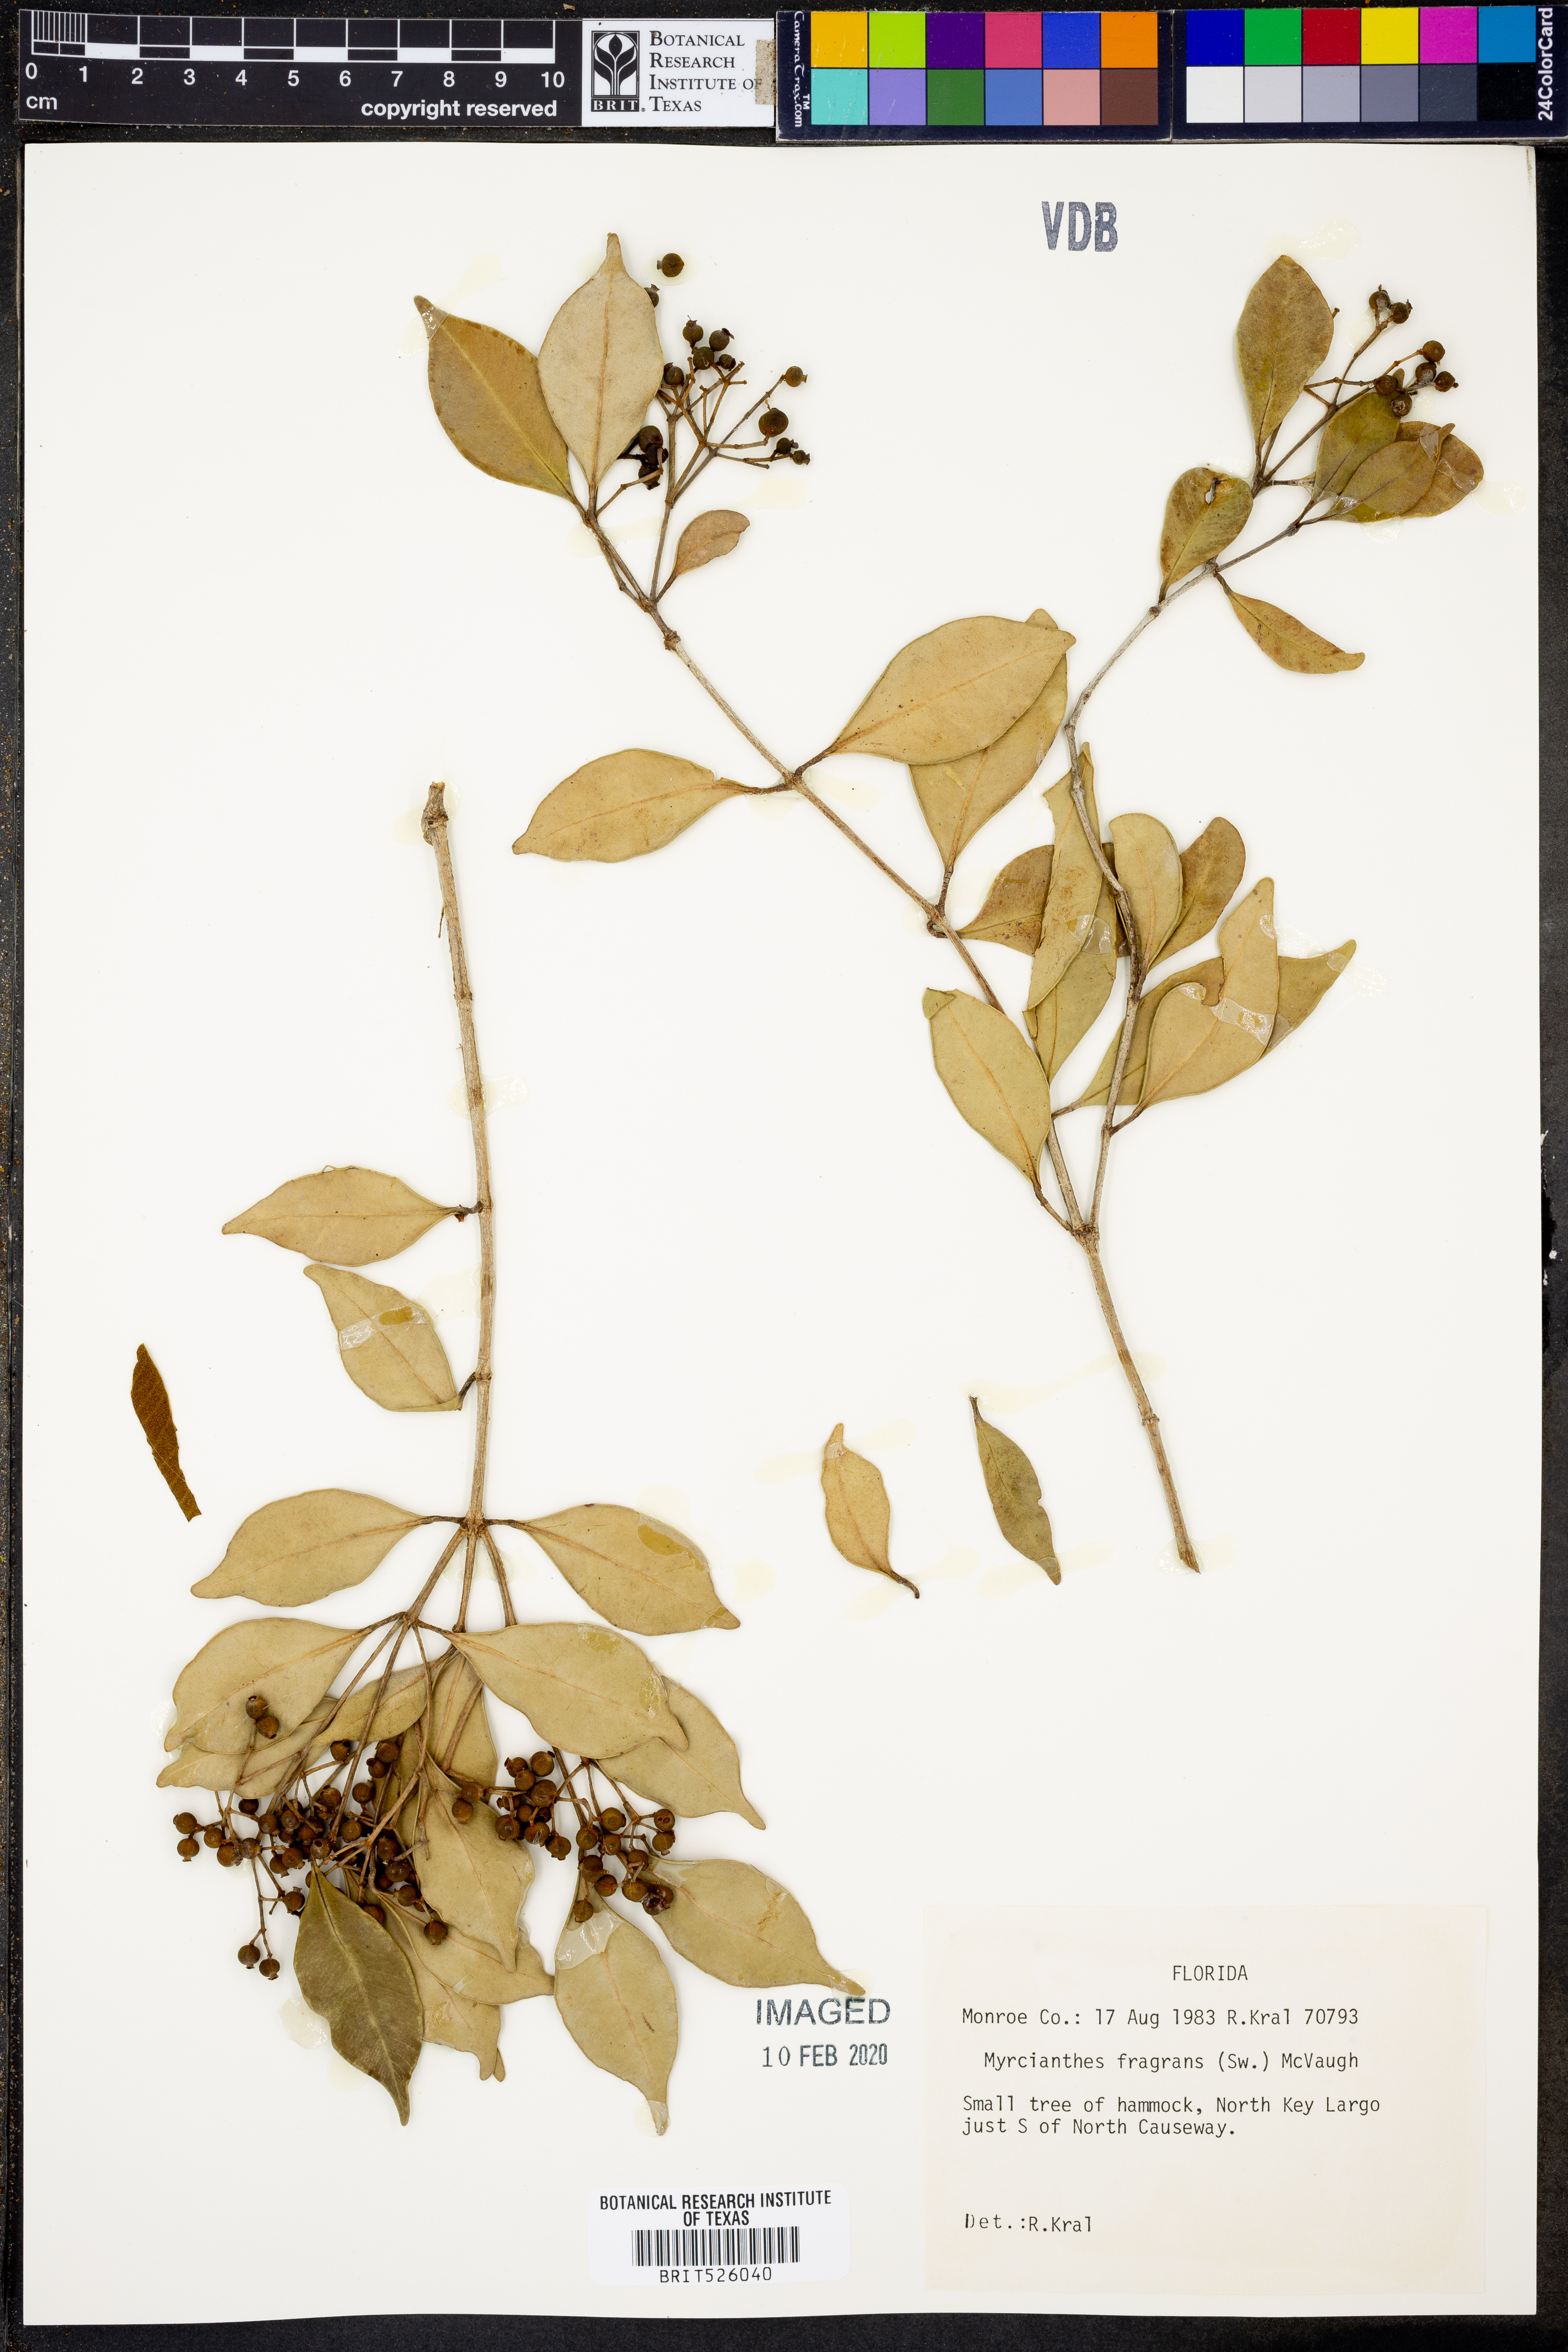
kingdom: Plantae
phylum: Tracheophyta
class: Magnoliopsida
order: Myrtales
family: Myrtaceae
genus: Myrcianthes
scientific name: Myrcianthes fragrans
